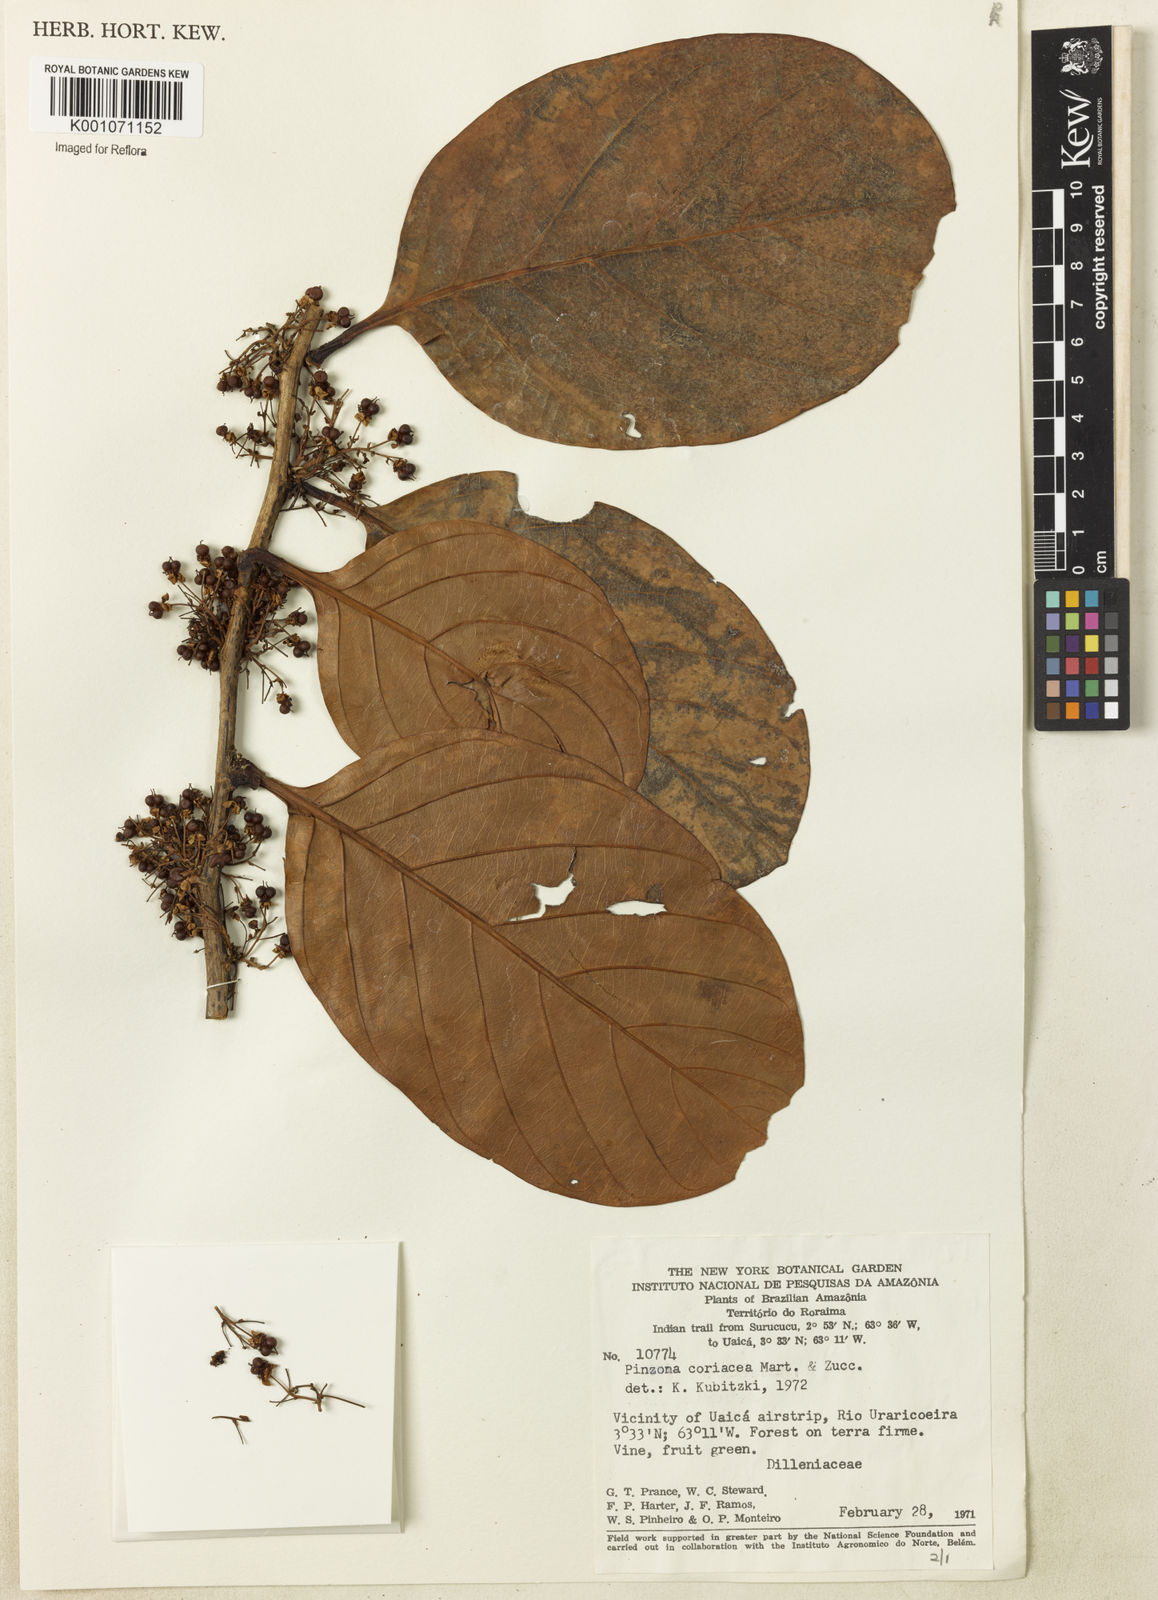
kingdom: Plantae
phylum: Tracheophyta
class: Magnoliopsida
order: Dilleniales
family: Dilleniaceae
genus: Pinzona
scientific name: Pinzona coriacea
